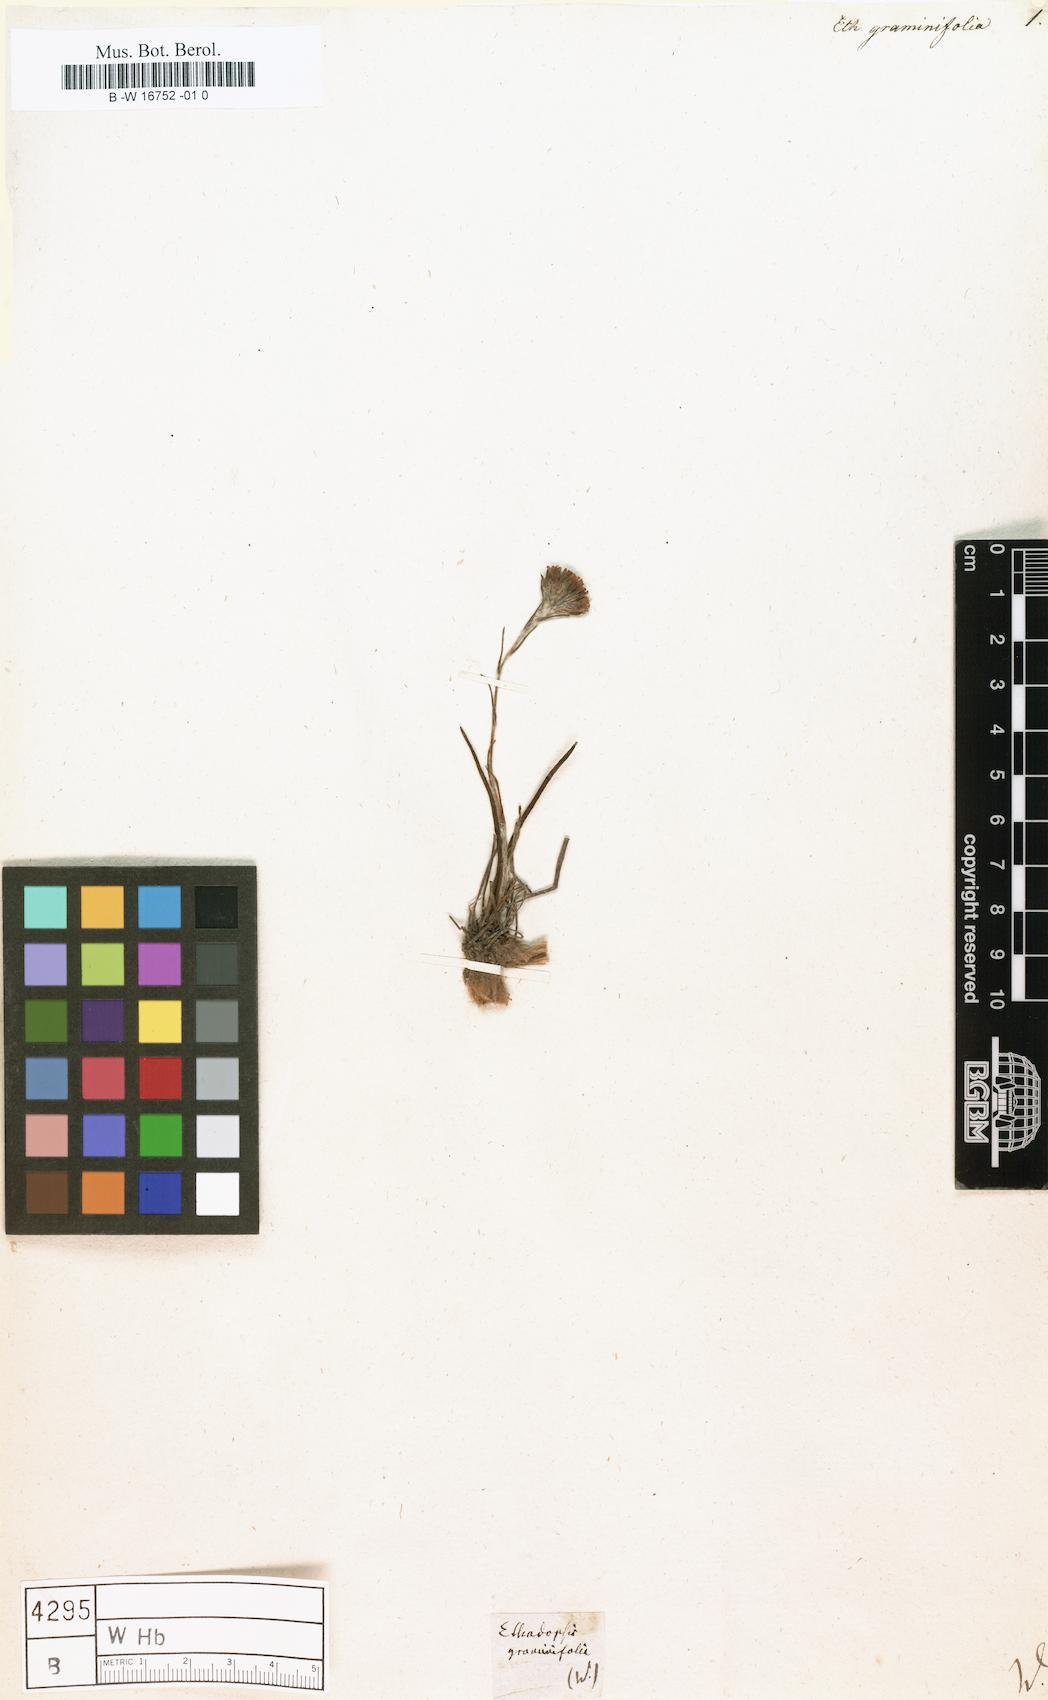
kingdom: Plantae
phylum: Tracheophyta
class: Magnoliopsida
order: Asterales
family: Asteraceae
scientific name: Asteraceae
